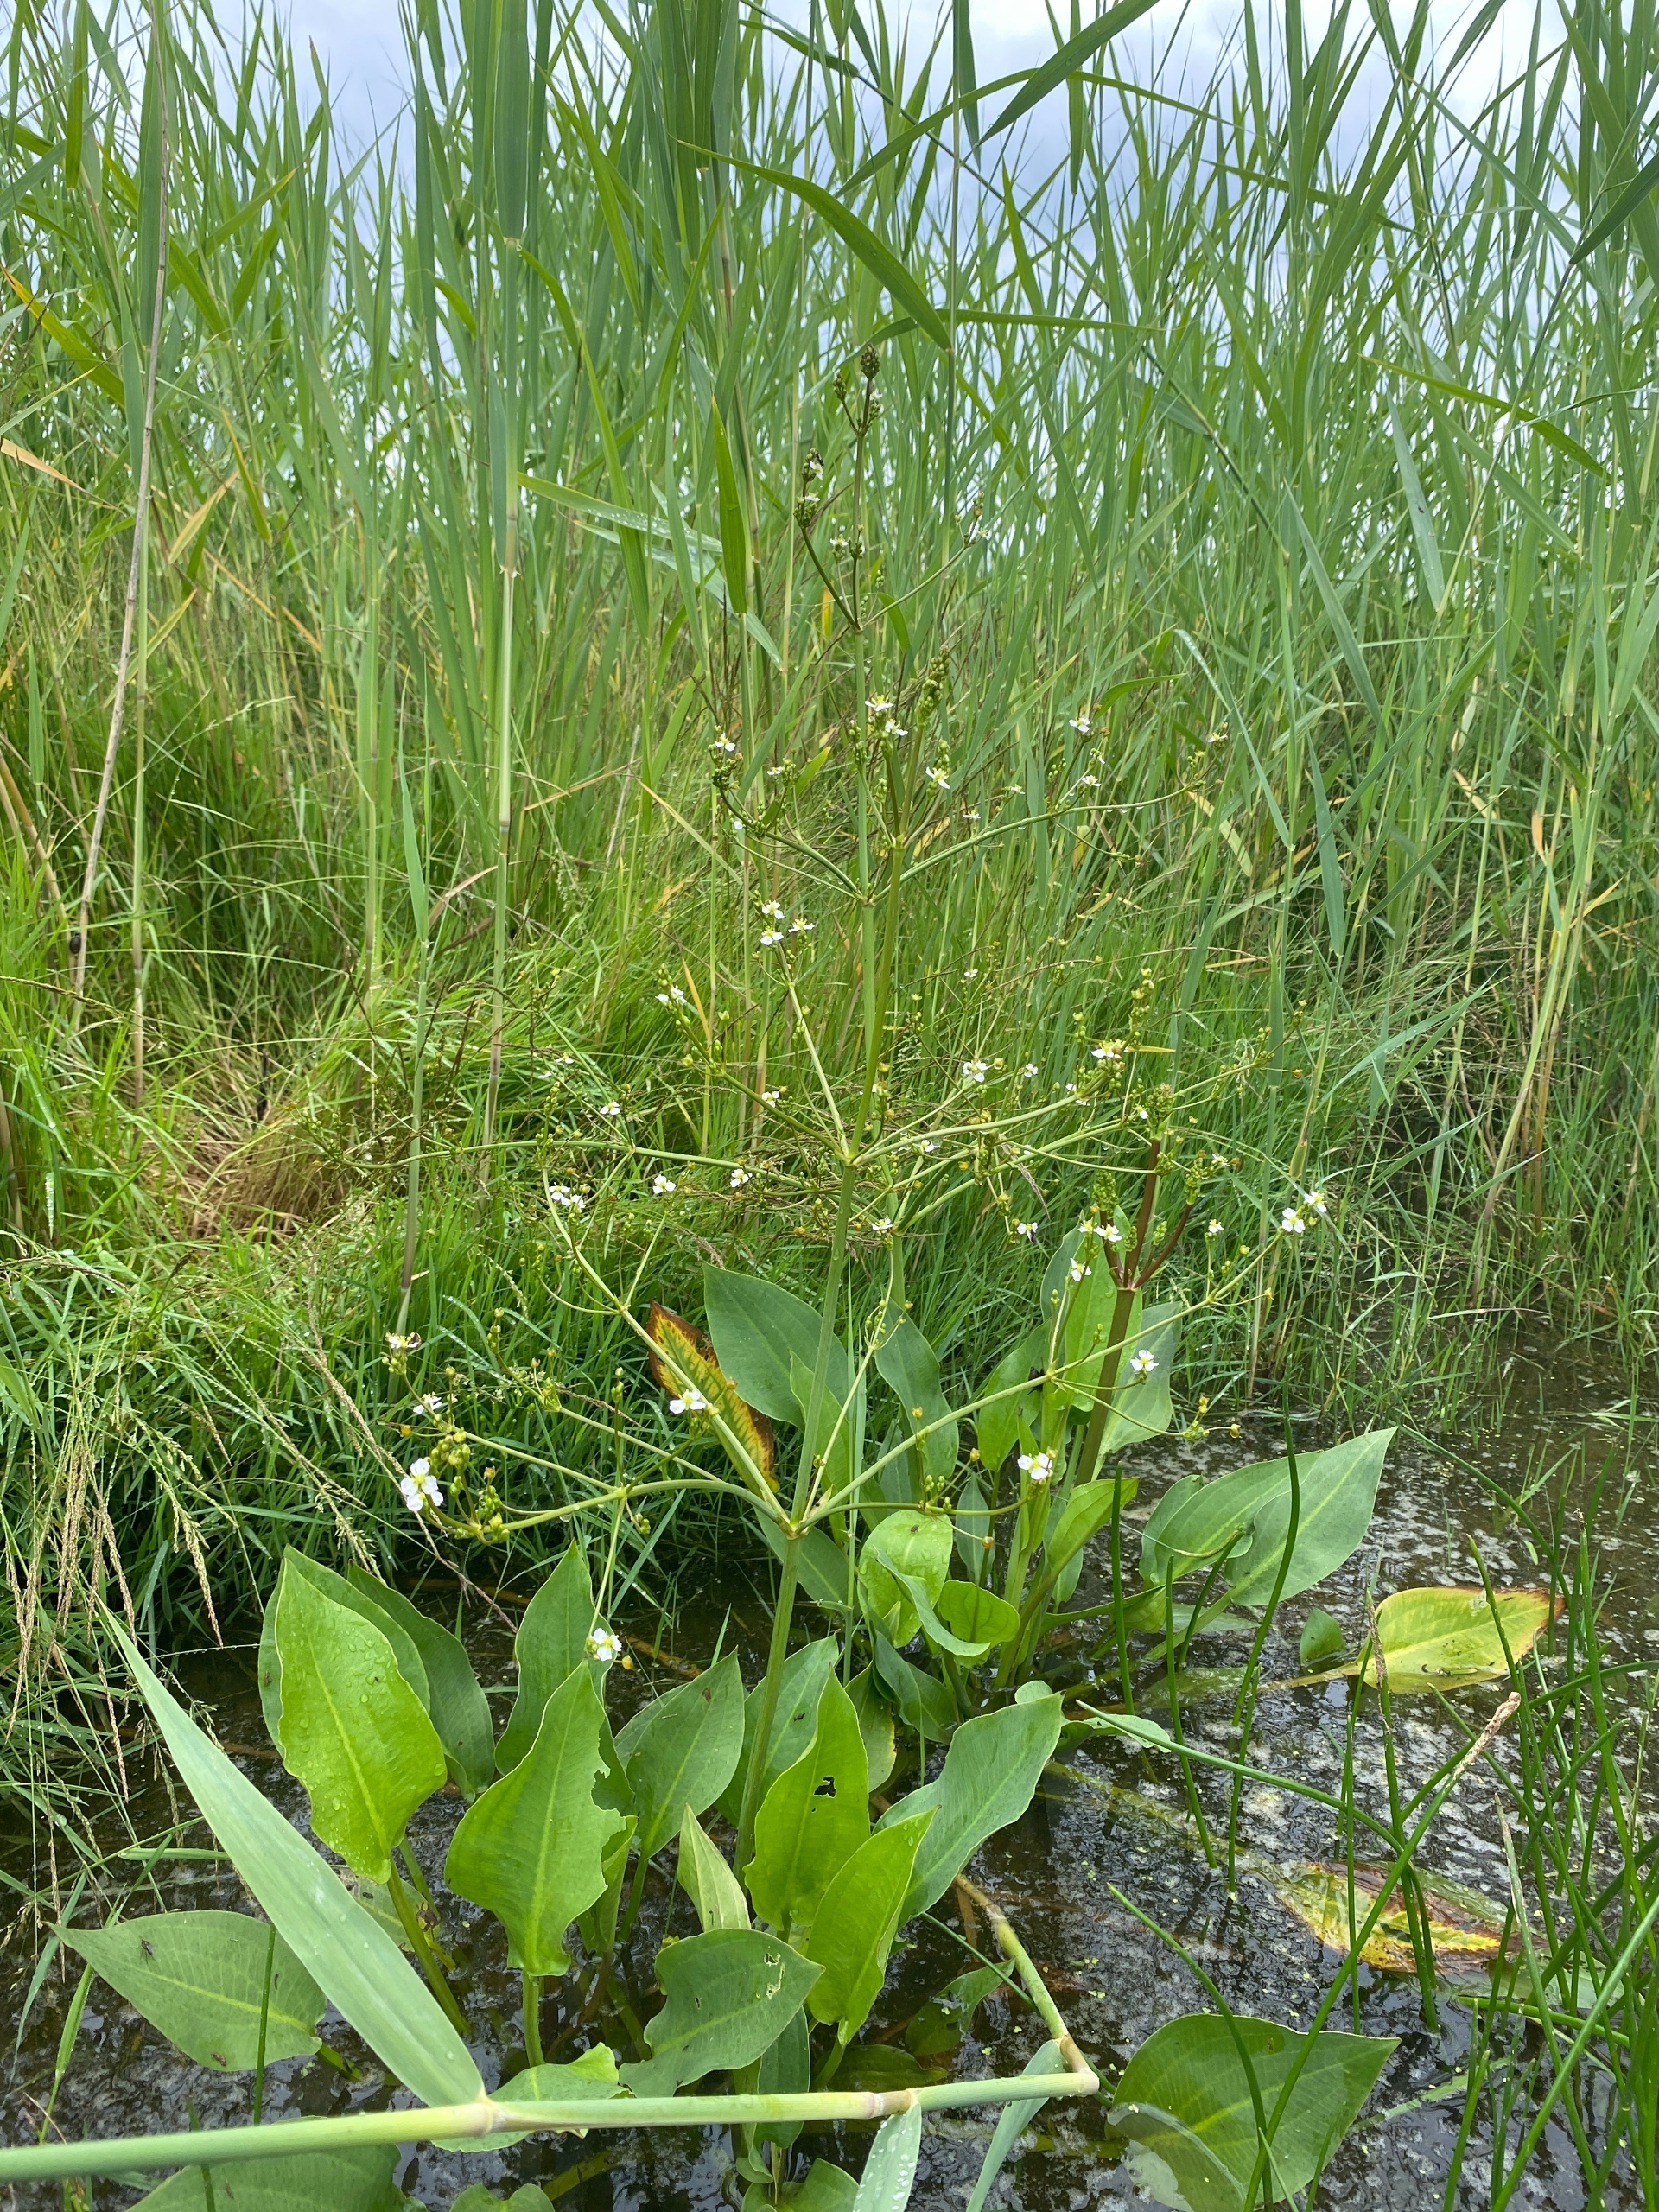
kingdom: Plantae
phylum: Tracheophyta
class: Liliopsida
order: Alismatales
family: Alismataceae
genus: Alisma
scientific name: Alisma plantago-aquatica
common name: Vejbred-skeblad
